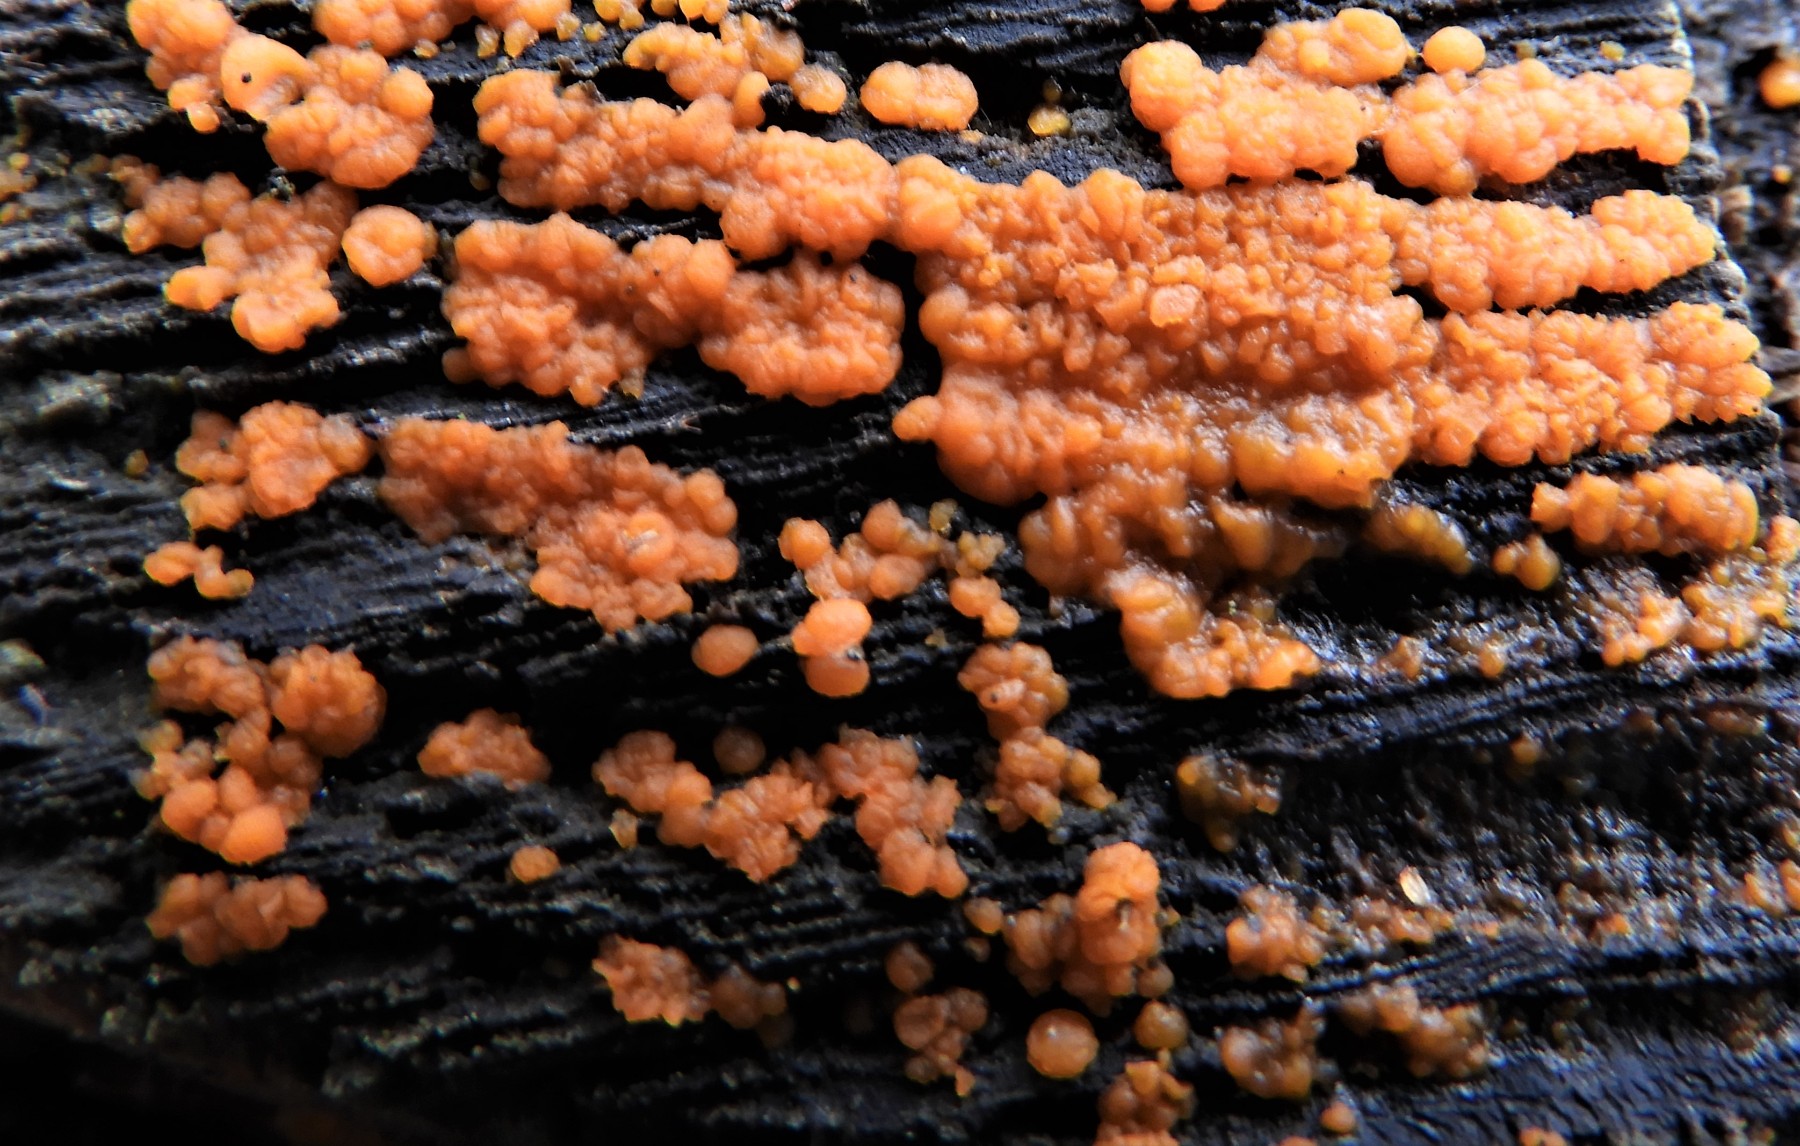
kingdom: Fungi
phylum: Basidiomycota
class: Dacrymycetes
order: Dacrymycetales
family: Dacrymycetaceae
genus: Dacrymyces
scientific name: Dacrymyces stillatus
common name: almindelig tåresvamp
